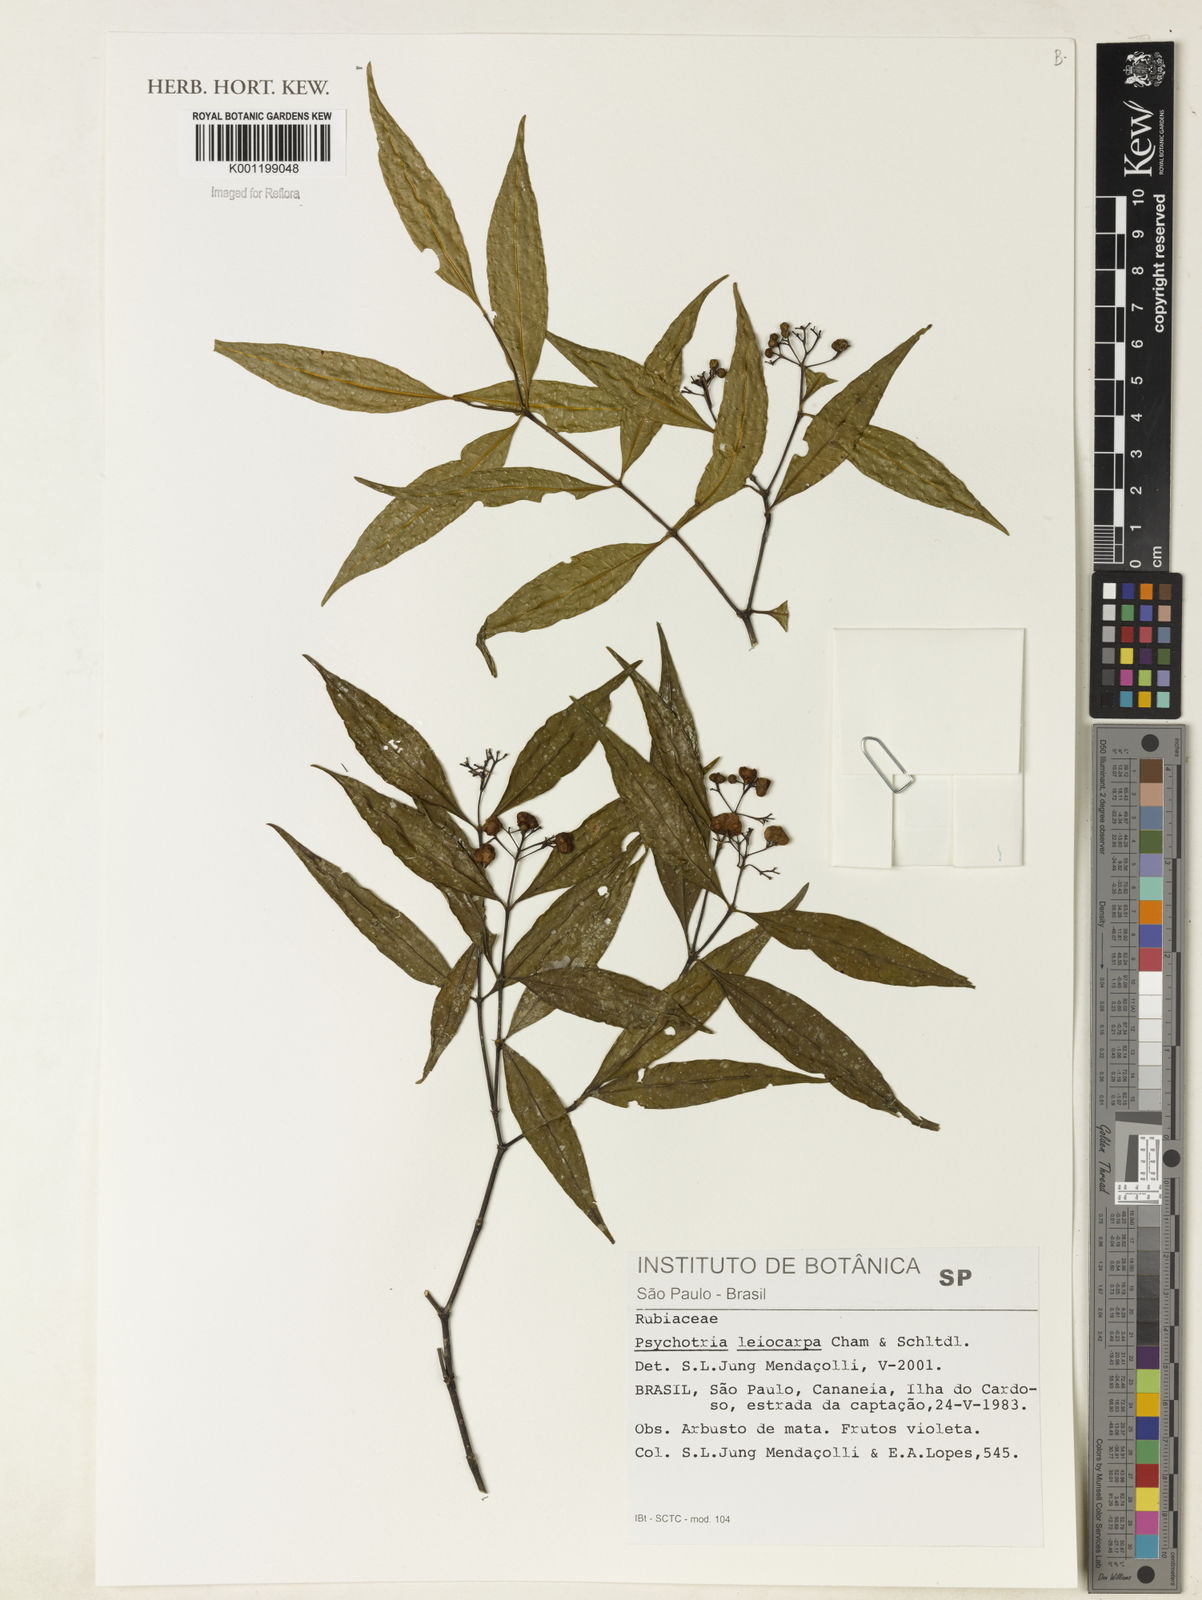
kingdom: Plantae
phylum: Tracheophyta
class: Magnoliopsida
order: Gentianales
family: Rubiaceae
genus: Psychotria
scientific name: Psychotria leiocarpa
